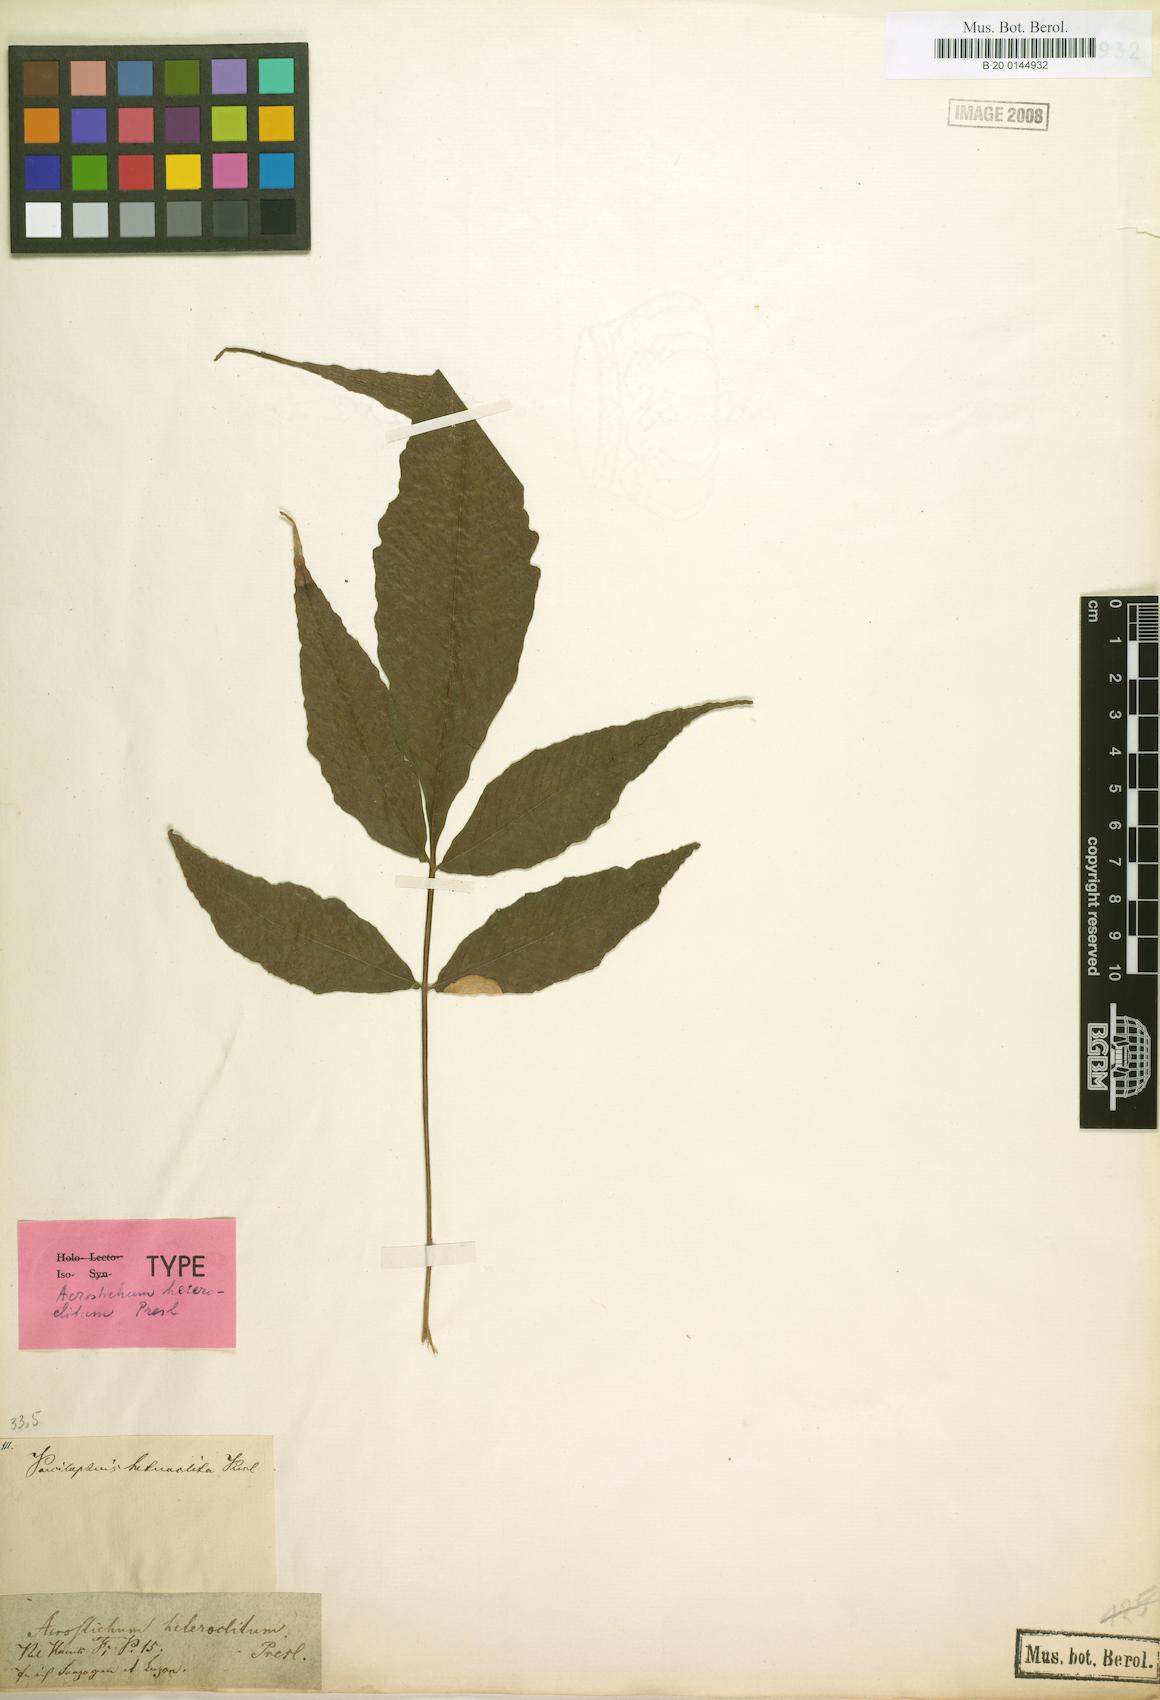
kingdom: Plantae
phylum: Tracheophyta
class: Polypodiopsida
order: Polypodiales
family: Dryopteridaceae
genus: Bolbitis
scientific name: Bolbitis heteroclita
